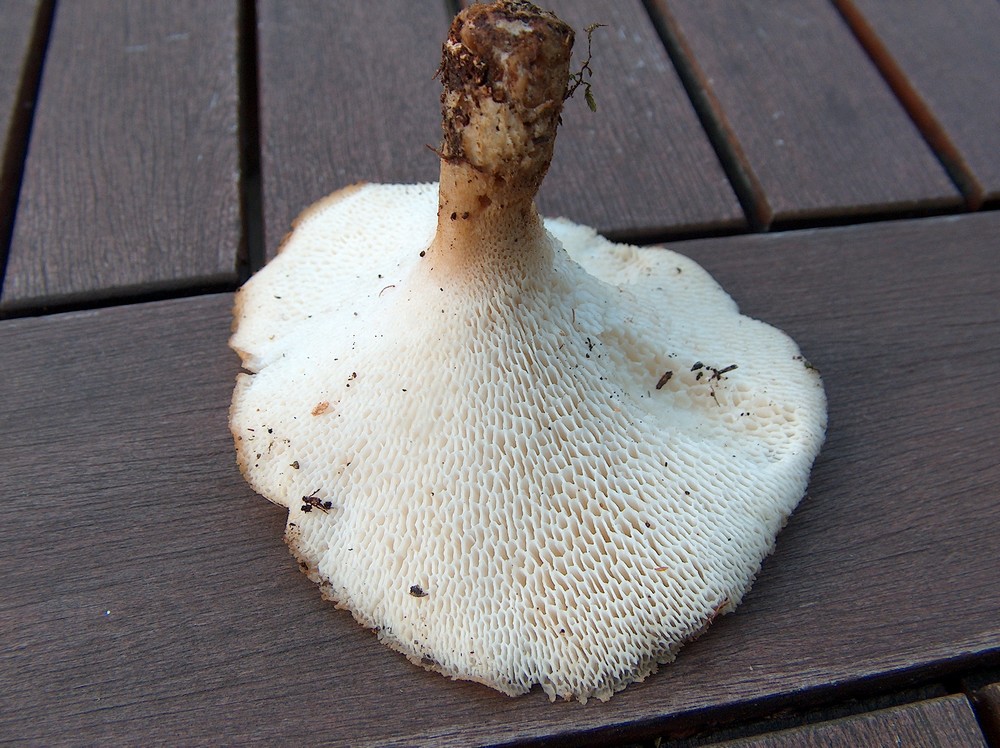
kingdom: Fungi
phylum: Basidiomycota
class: Agaricomycetes
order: Polyporales
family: Polyporaceae
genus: Polyporus
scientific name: Polyporus tuberaster
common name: knoldet stilkporesvamp
